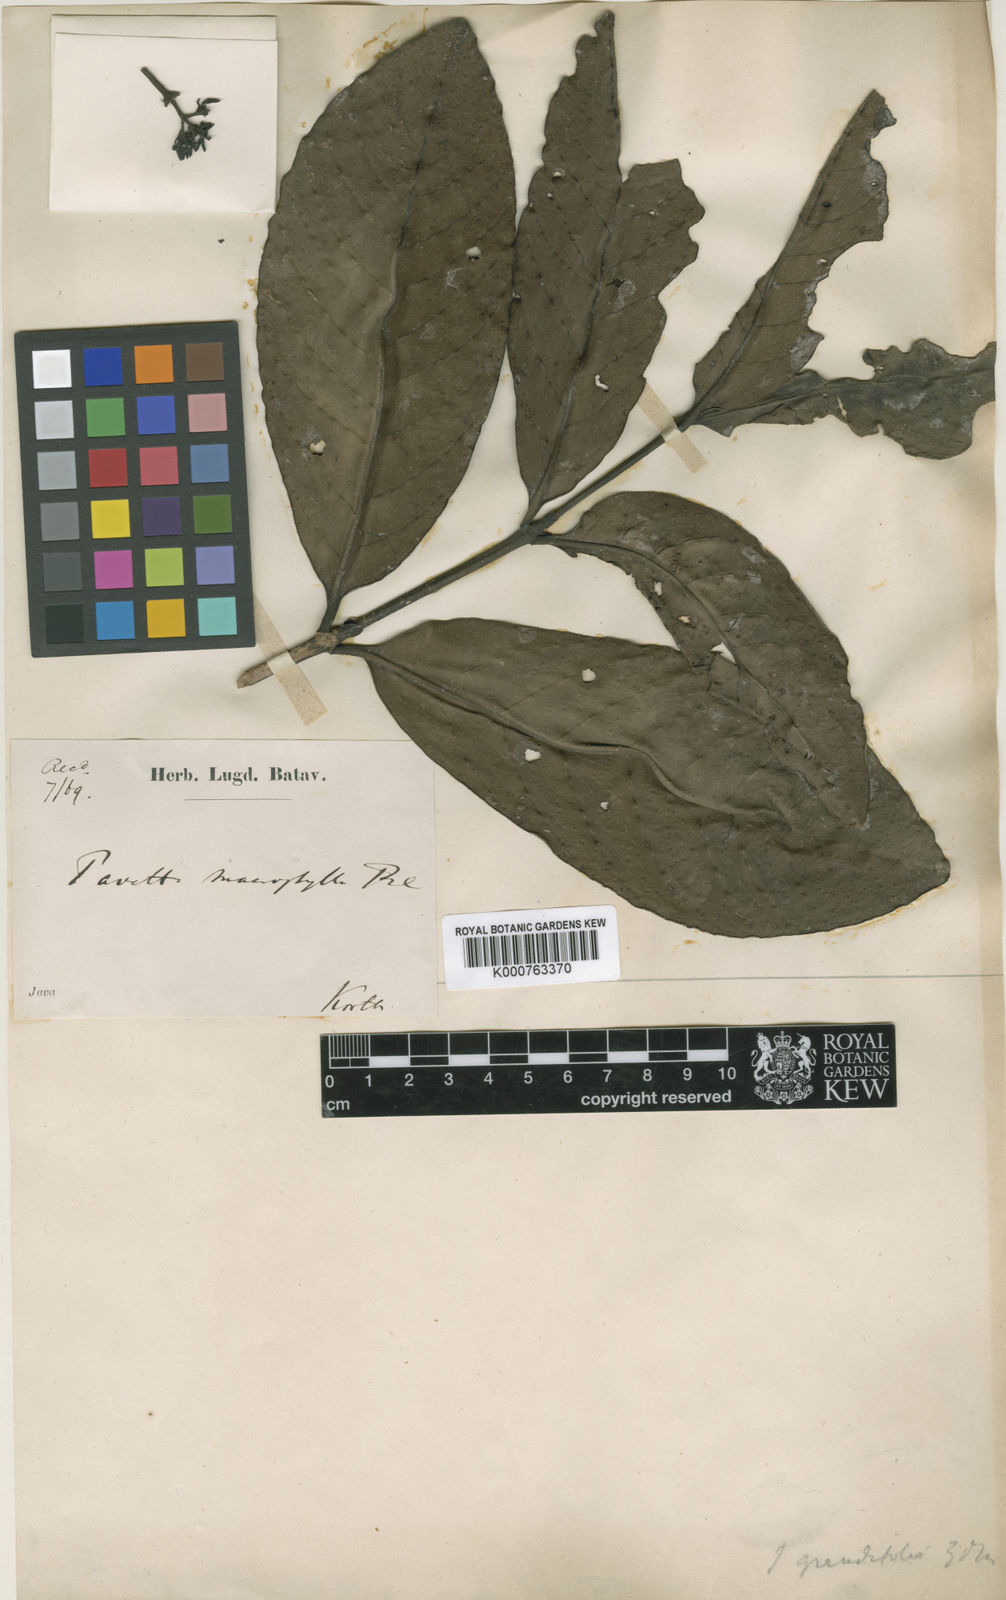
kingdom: Plantae
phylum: Tracheophyta
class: Magnoliopsida
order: Gentianales
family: Rubiaceae
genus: Ixora
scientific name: Ixora grandifolia
